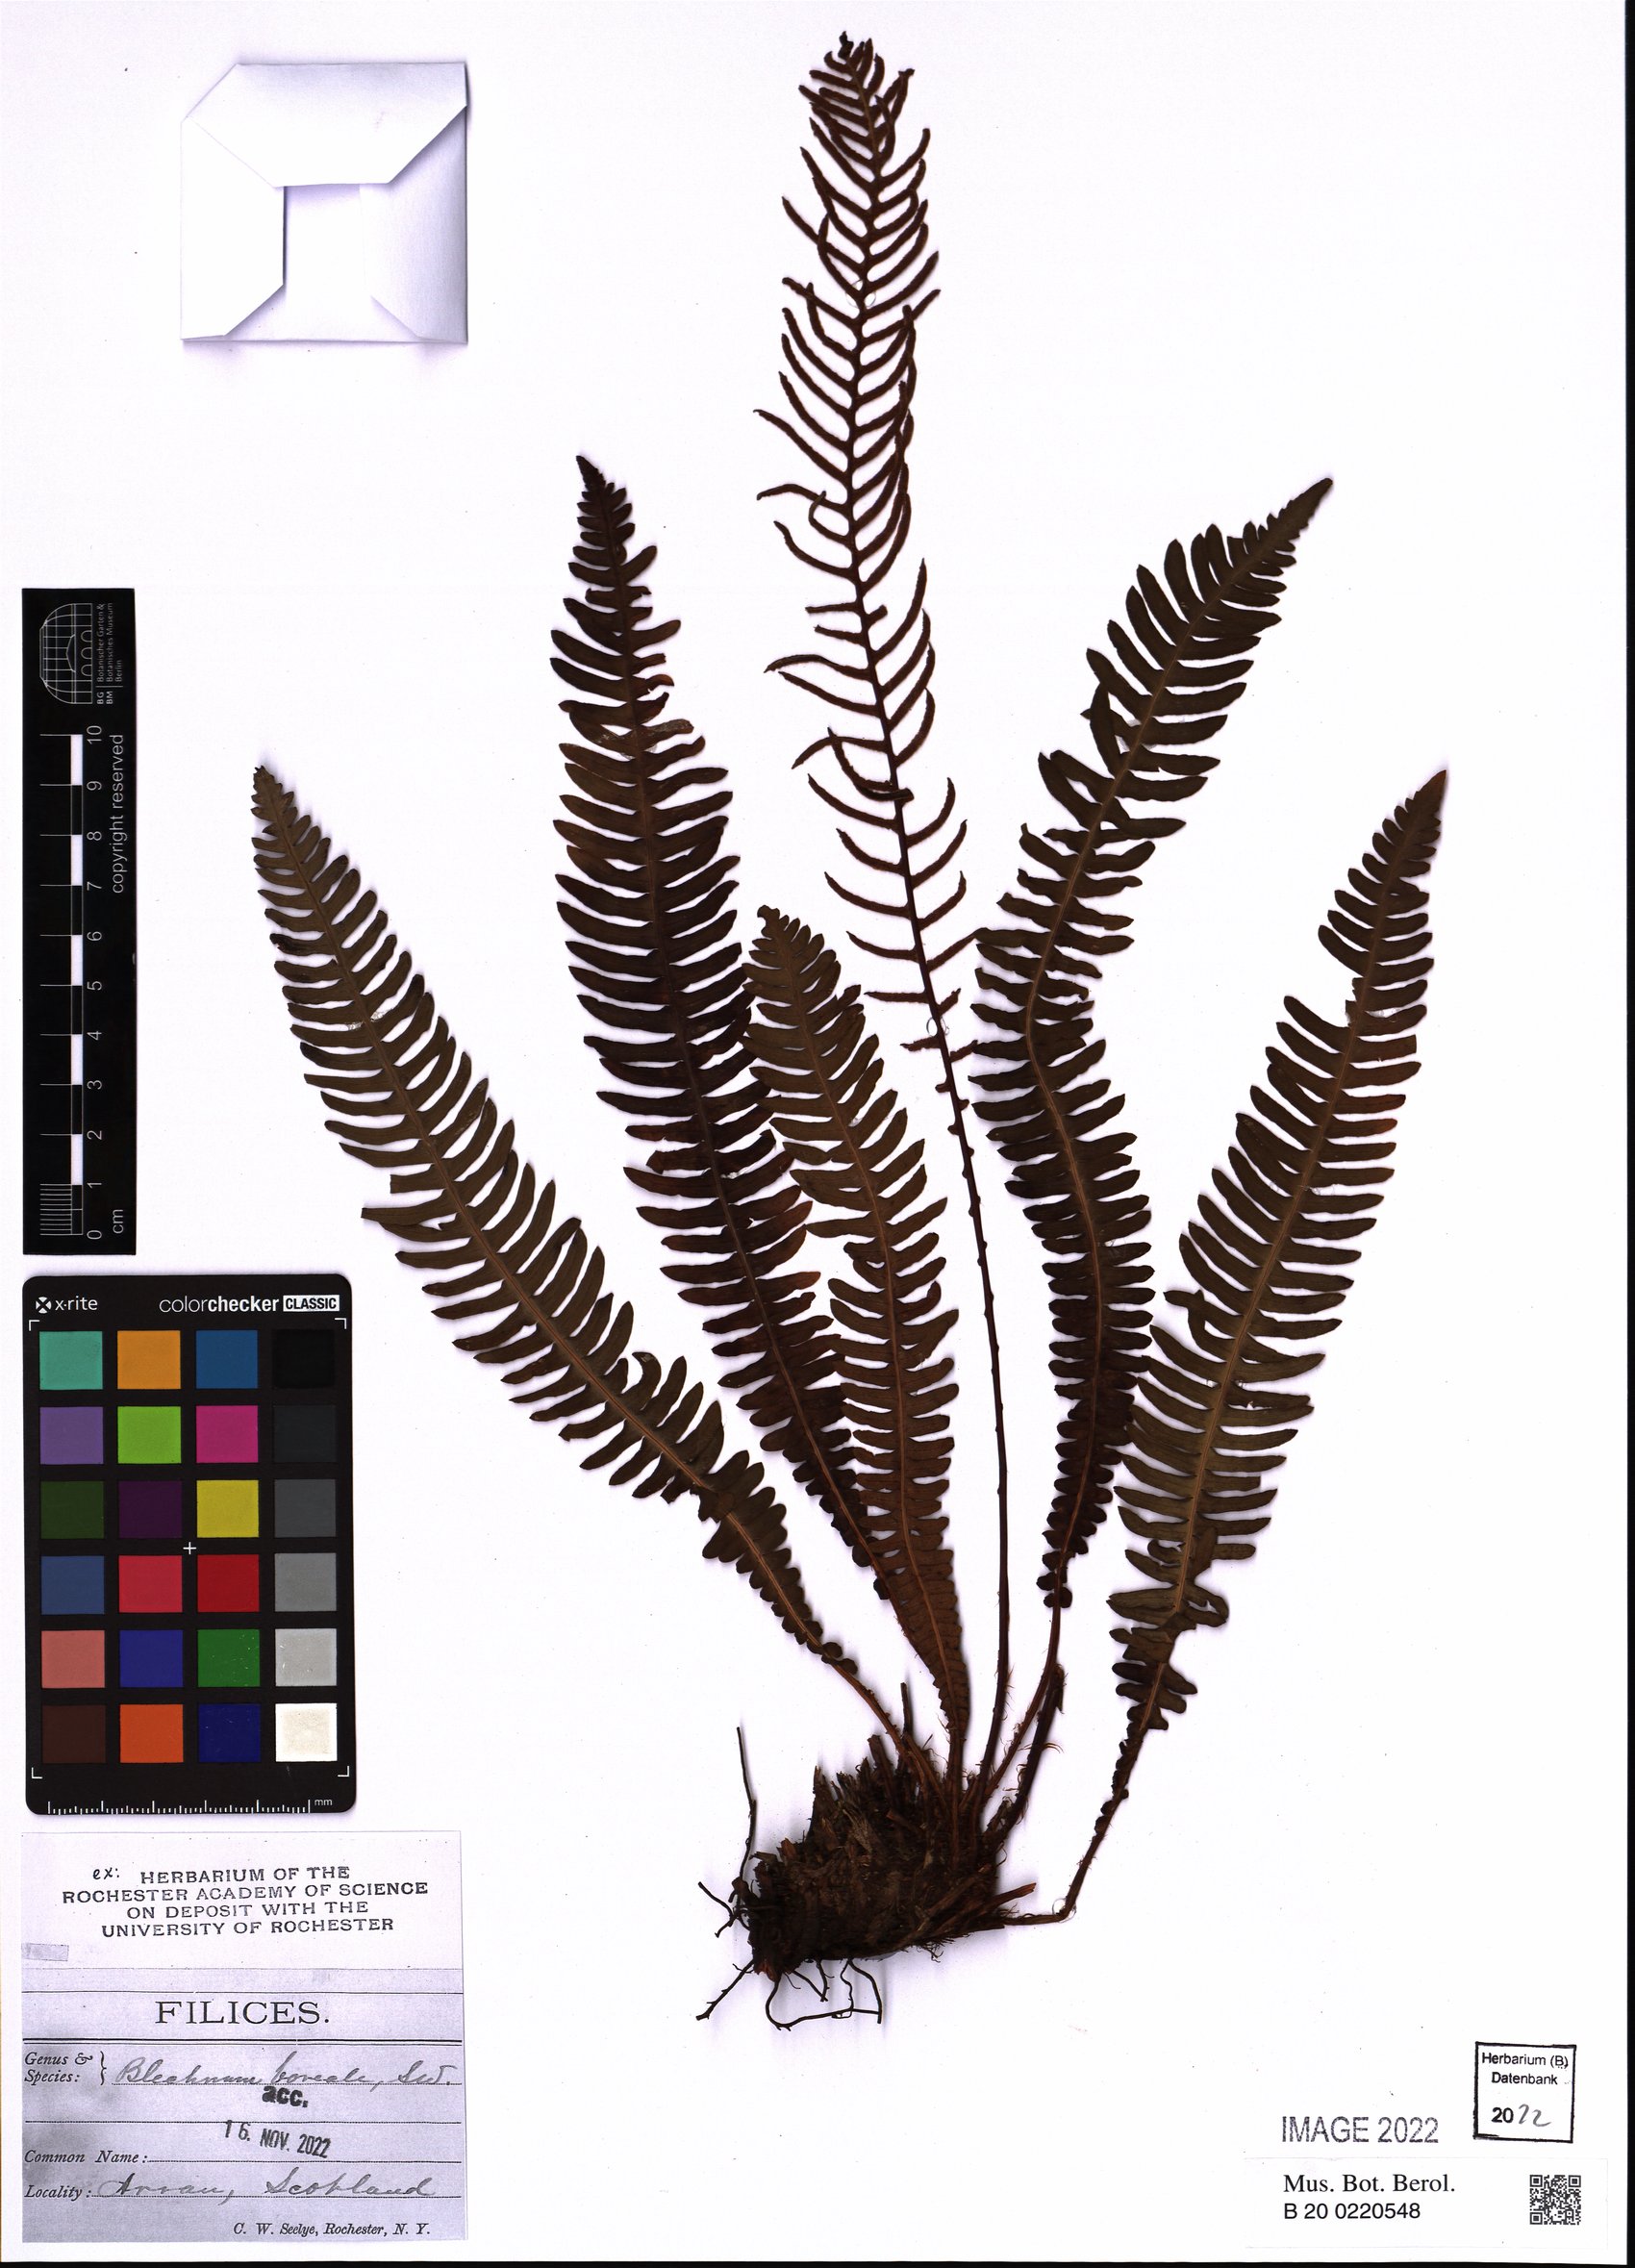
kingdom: Plantae
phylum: Tracheophyta
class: Polypodiopsida
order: Polypodiales
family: Blechnaceae
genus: Struthiopteris
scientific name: Struthiopteris spicant
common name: Deer fern
